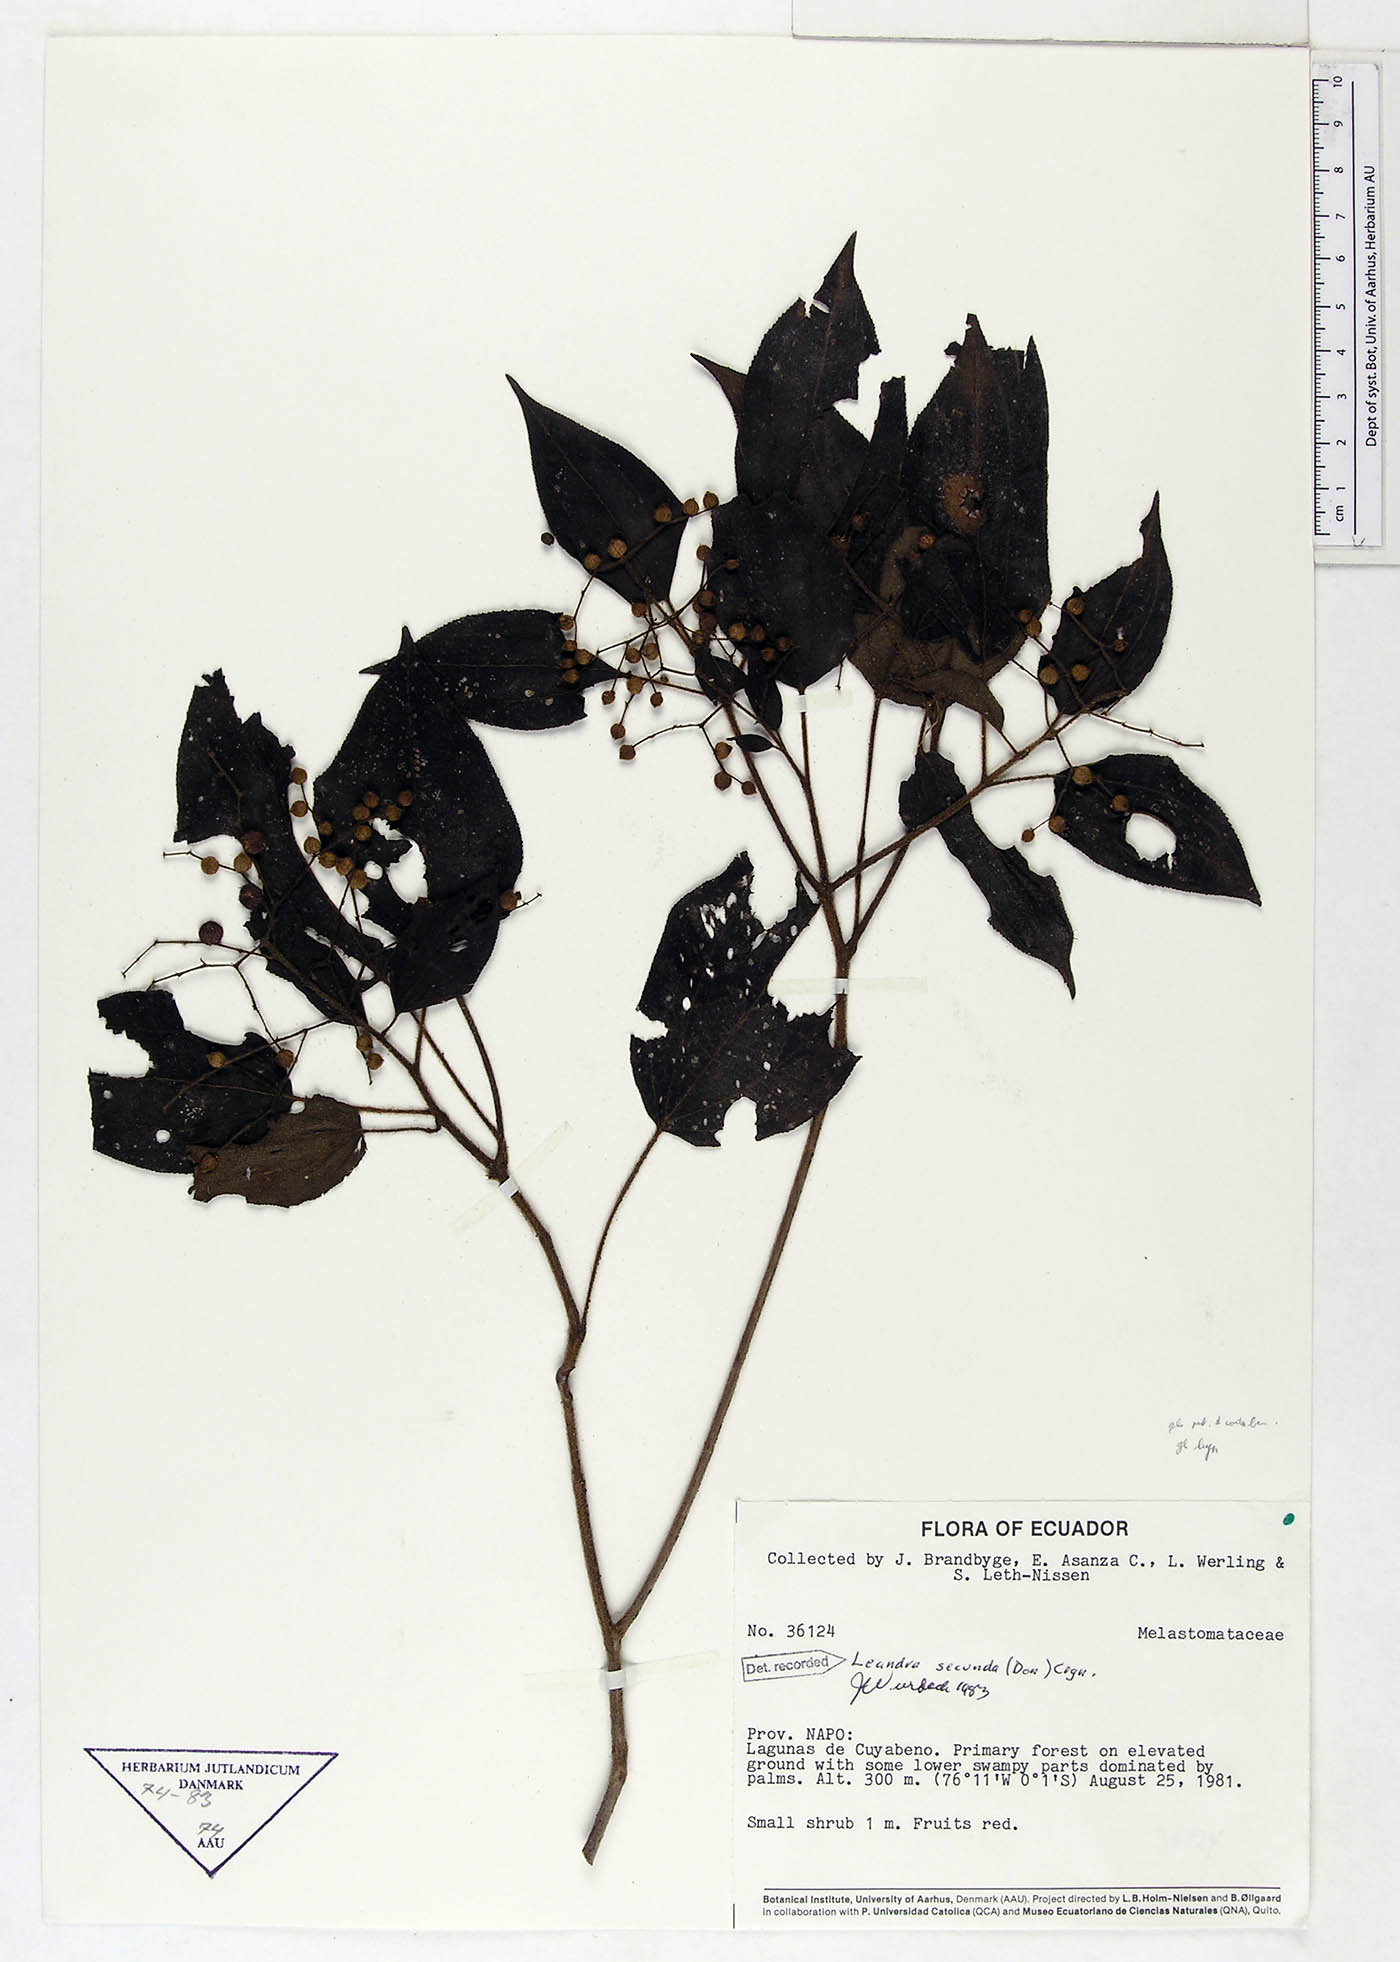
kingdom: Plantae
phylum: Tracheophyta
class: Magnoliopsida
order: Myrtales
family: Melastomataceae
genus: Miconia
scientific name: Miconia neosecunda
